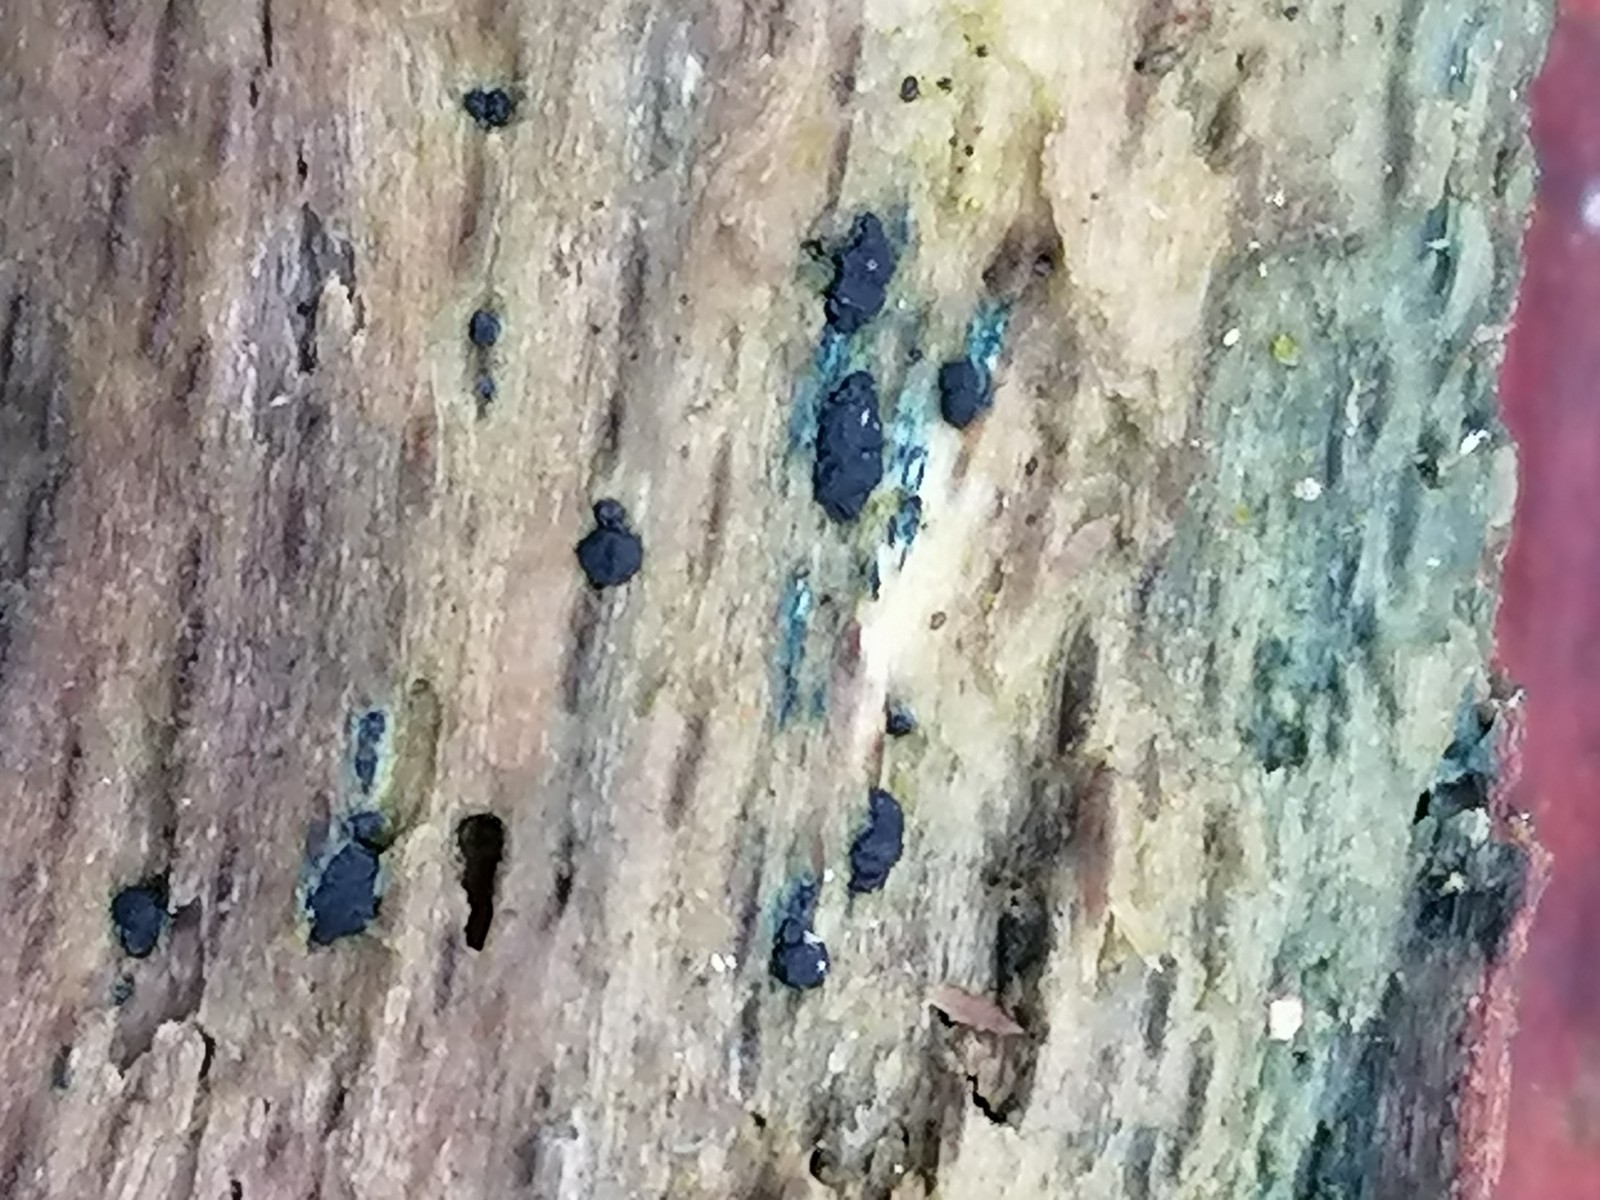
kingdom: Fungi
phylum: Ascomycota
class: Leotiomycetes
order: Helotiales
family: Helotiaceae
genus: Durella
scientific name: Durella atrocyanea
